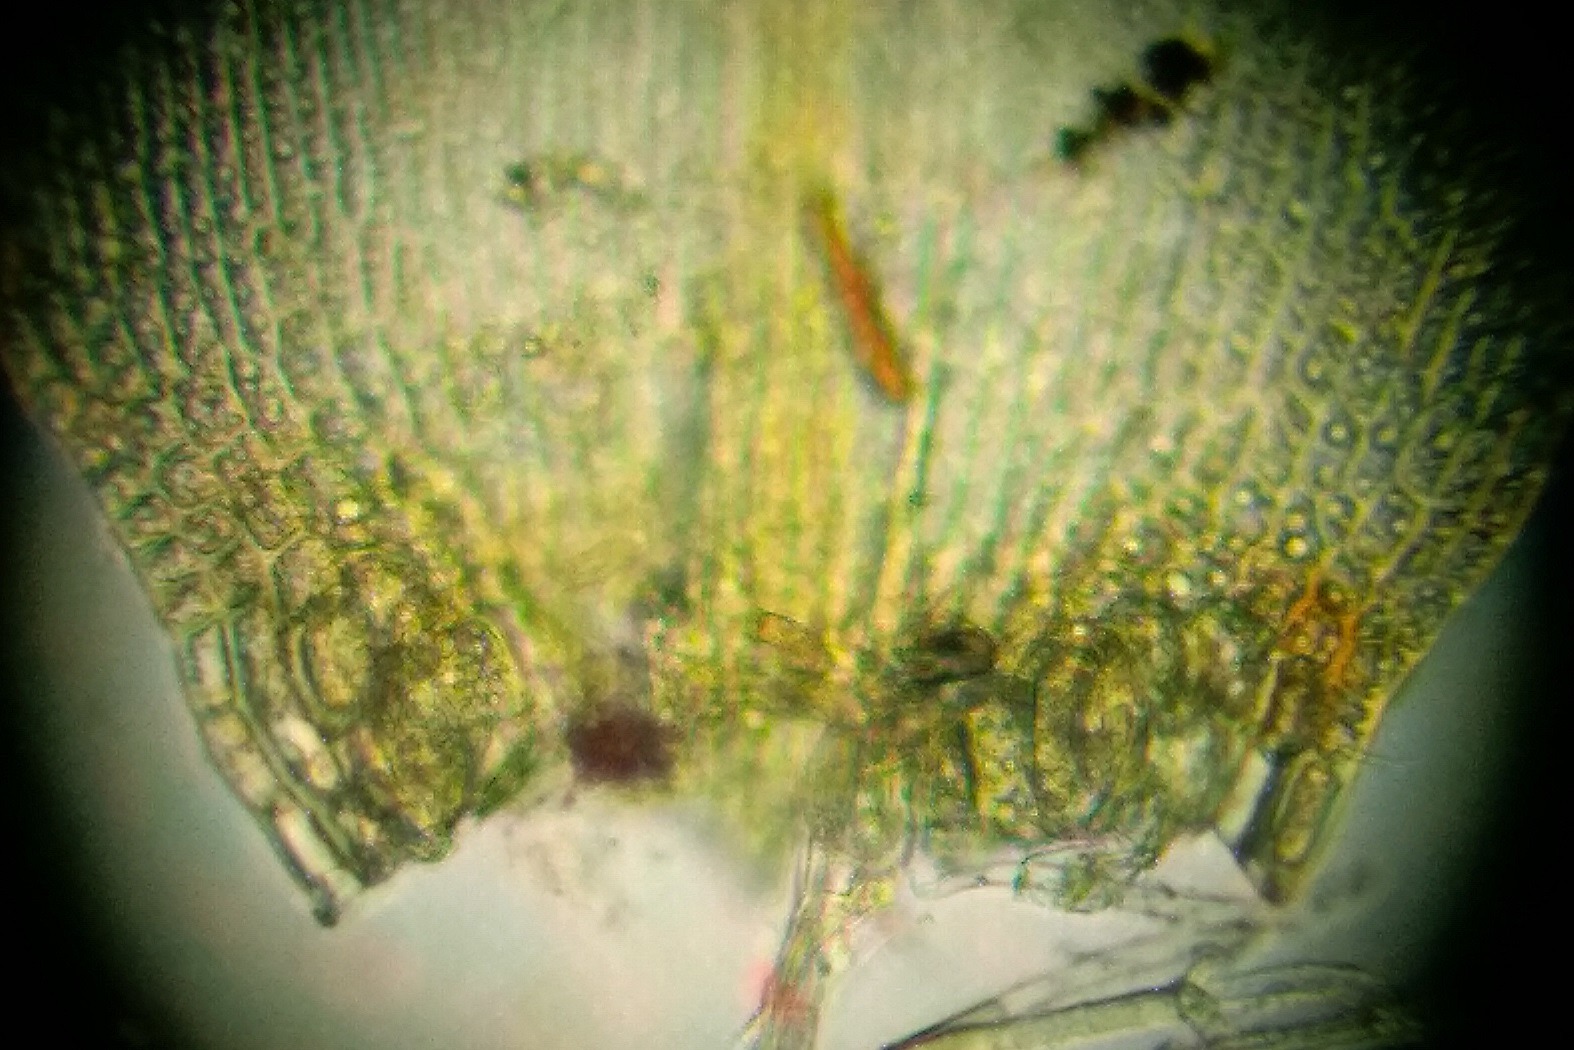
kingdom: Plantae
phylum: Bryophyta
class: Bryopsida
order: Hypnales
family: Amblystegiaceae
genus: Hygrohypnum
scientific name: Hygrohypnum luridum
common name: Krum møllemos
